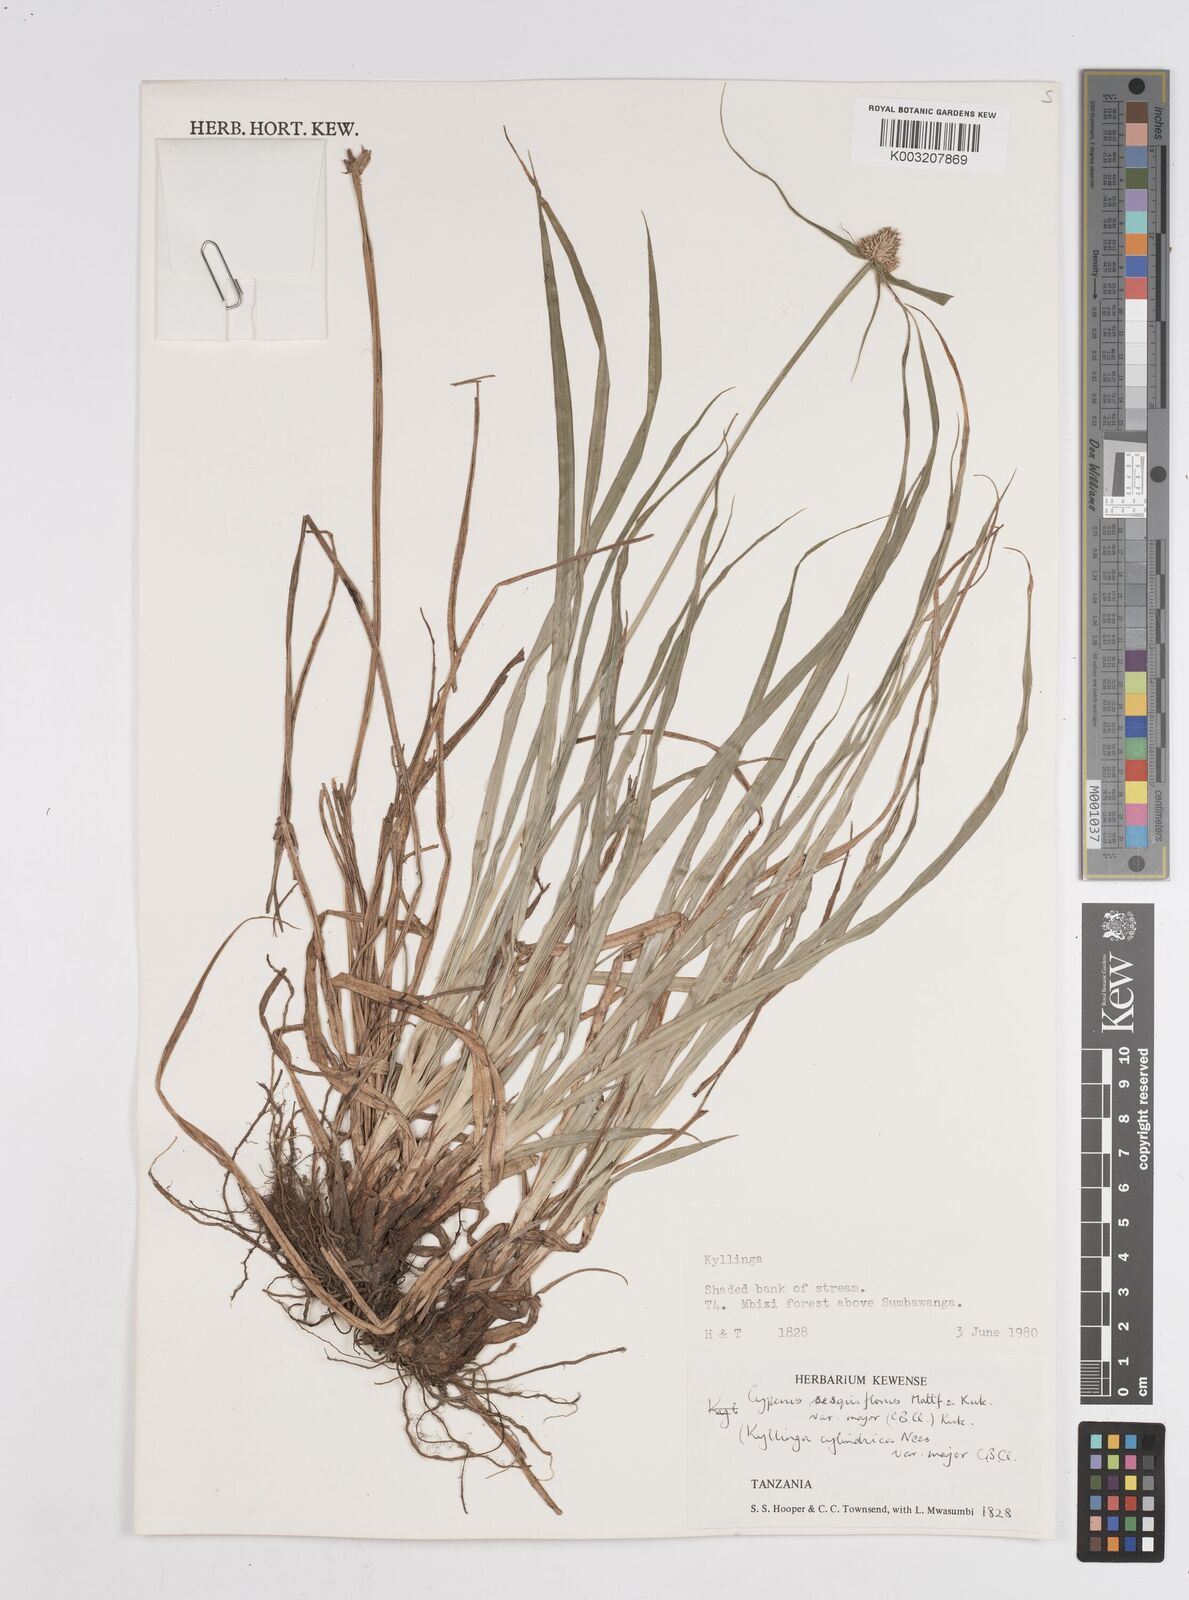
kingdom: Plantae
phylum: Tracheophyta
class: Liliopsida
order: Poales
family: Cyperaceae
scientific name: Cyperaceae
